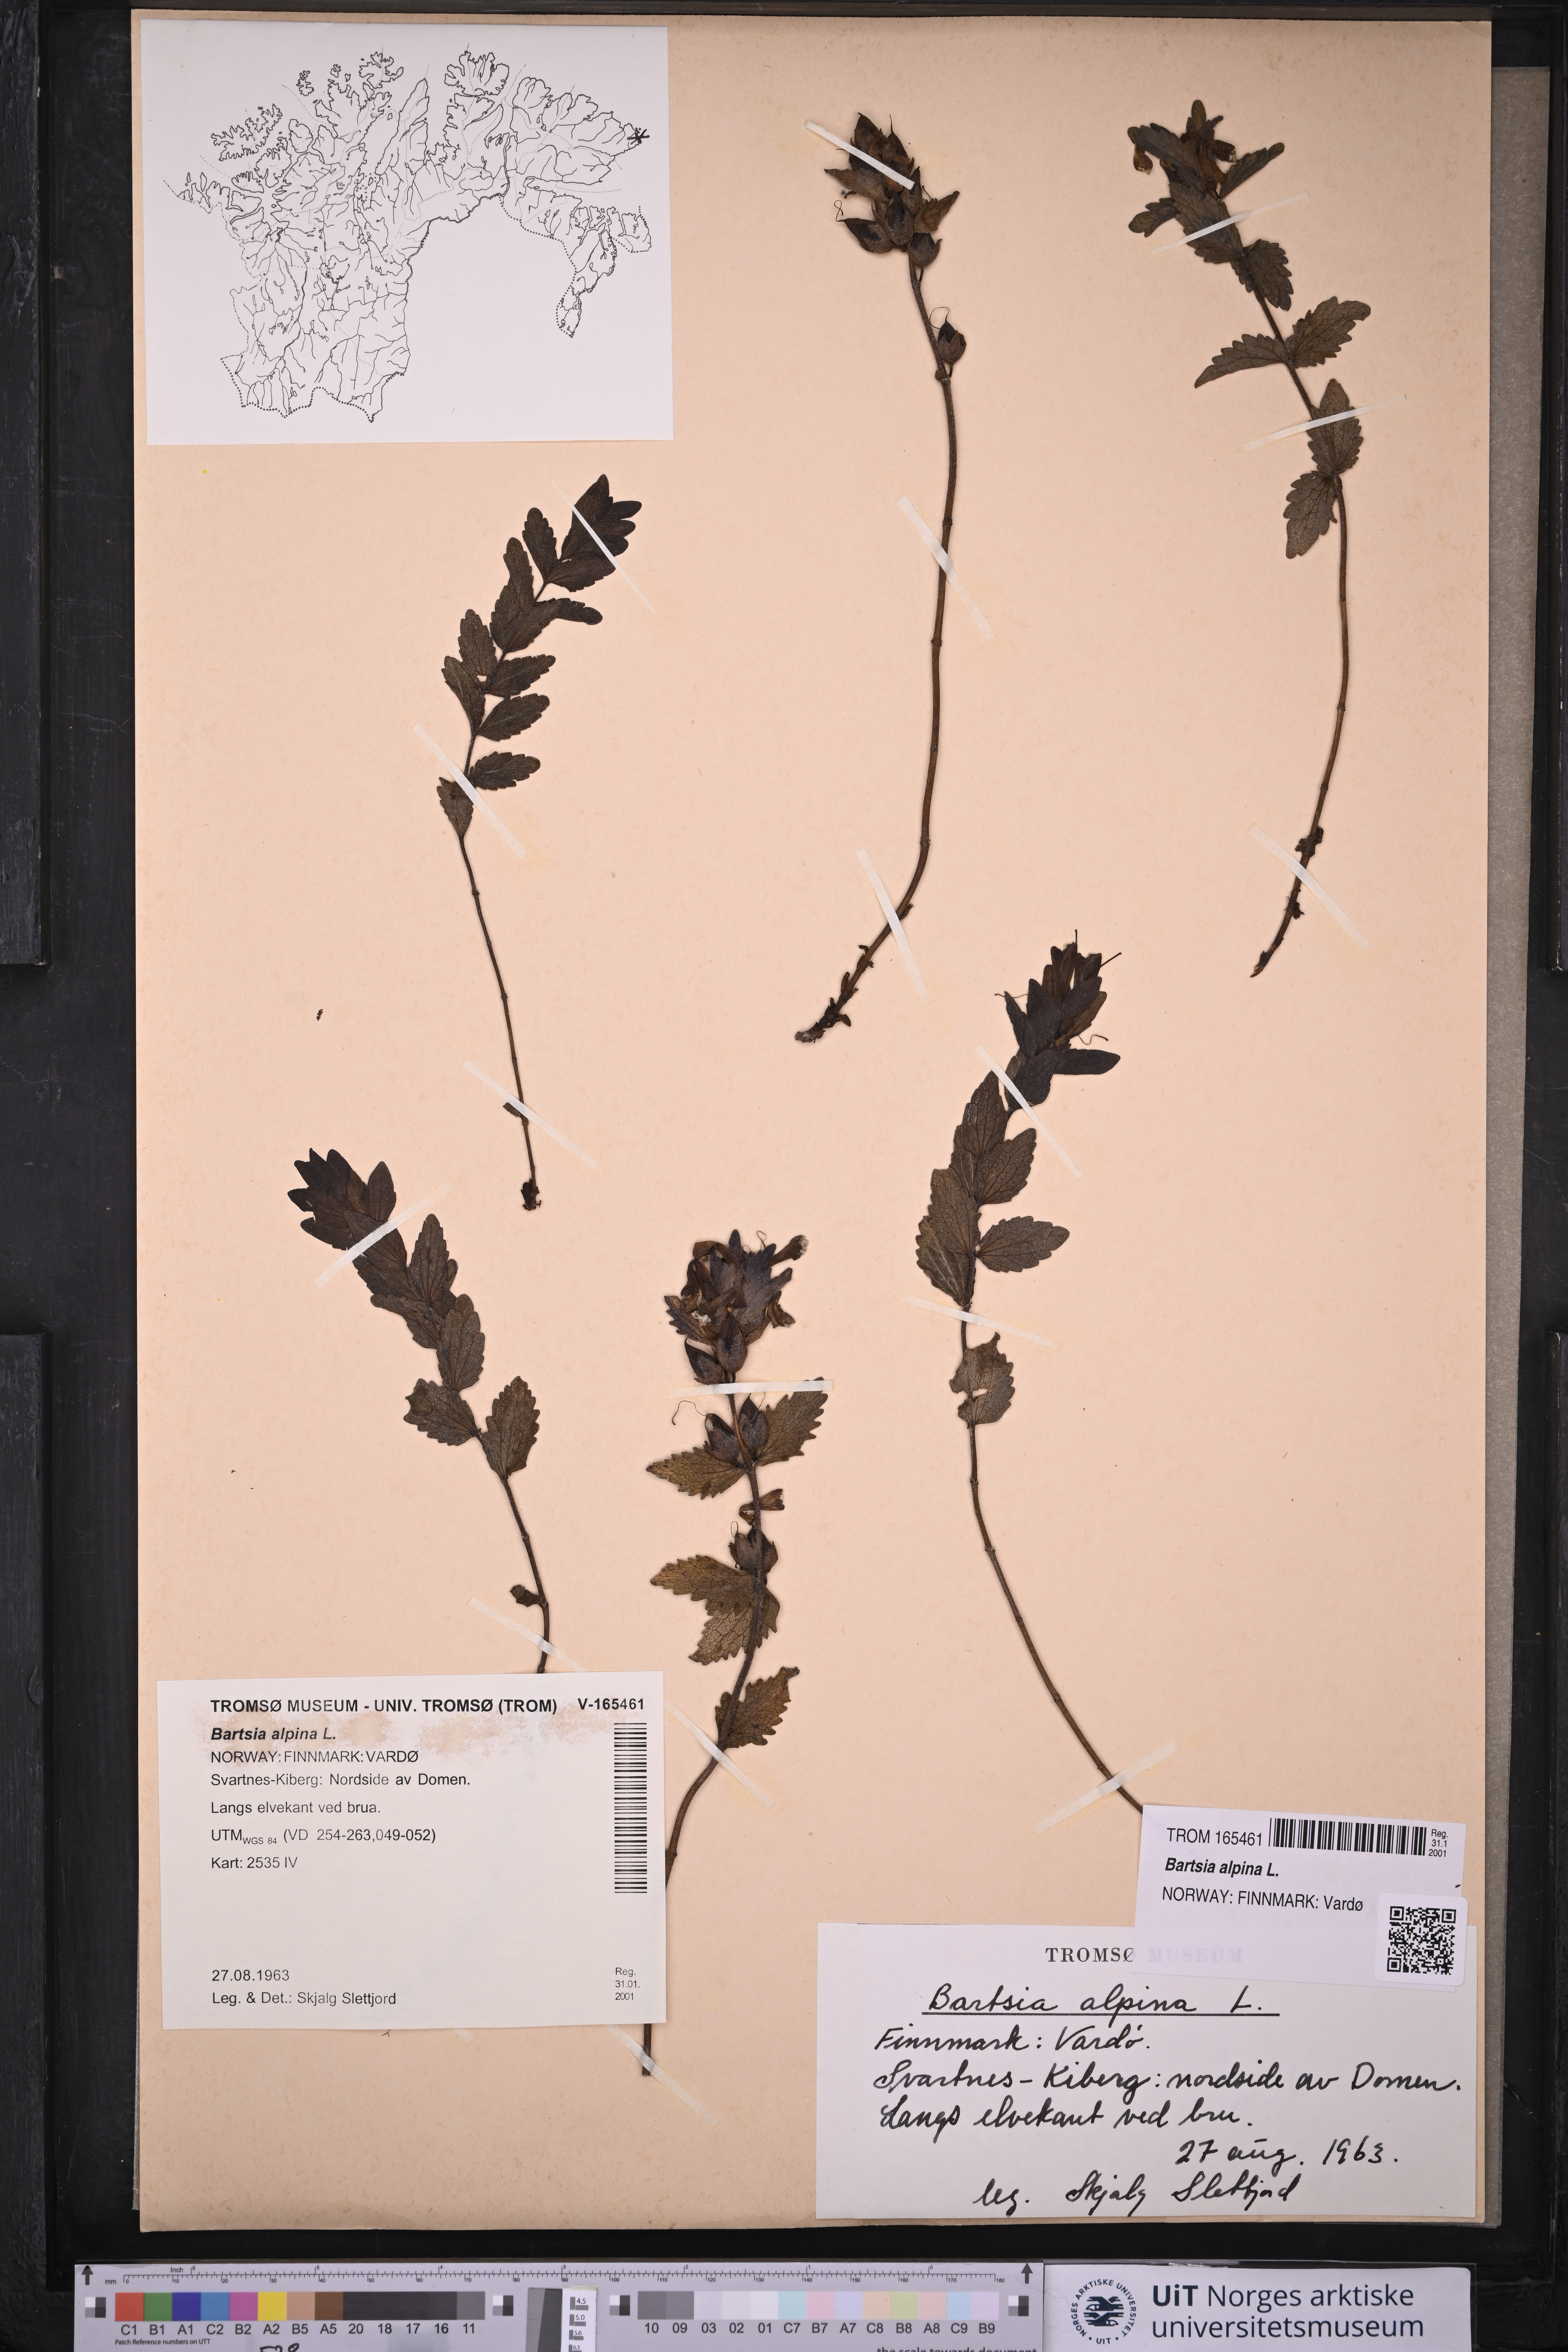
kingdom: Plantae
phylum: Tracheophyta
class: Magnoliopsida
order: Lamiales
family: Orobanchaceae
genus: Bartsia
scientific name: Bartsia alpina
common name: Alpine bartsia
